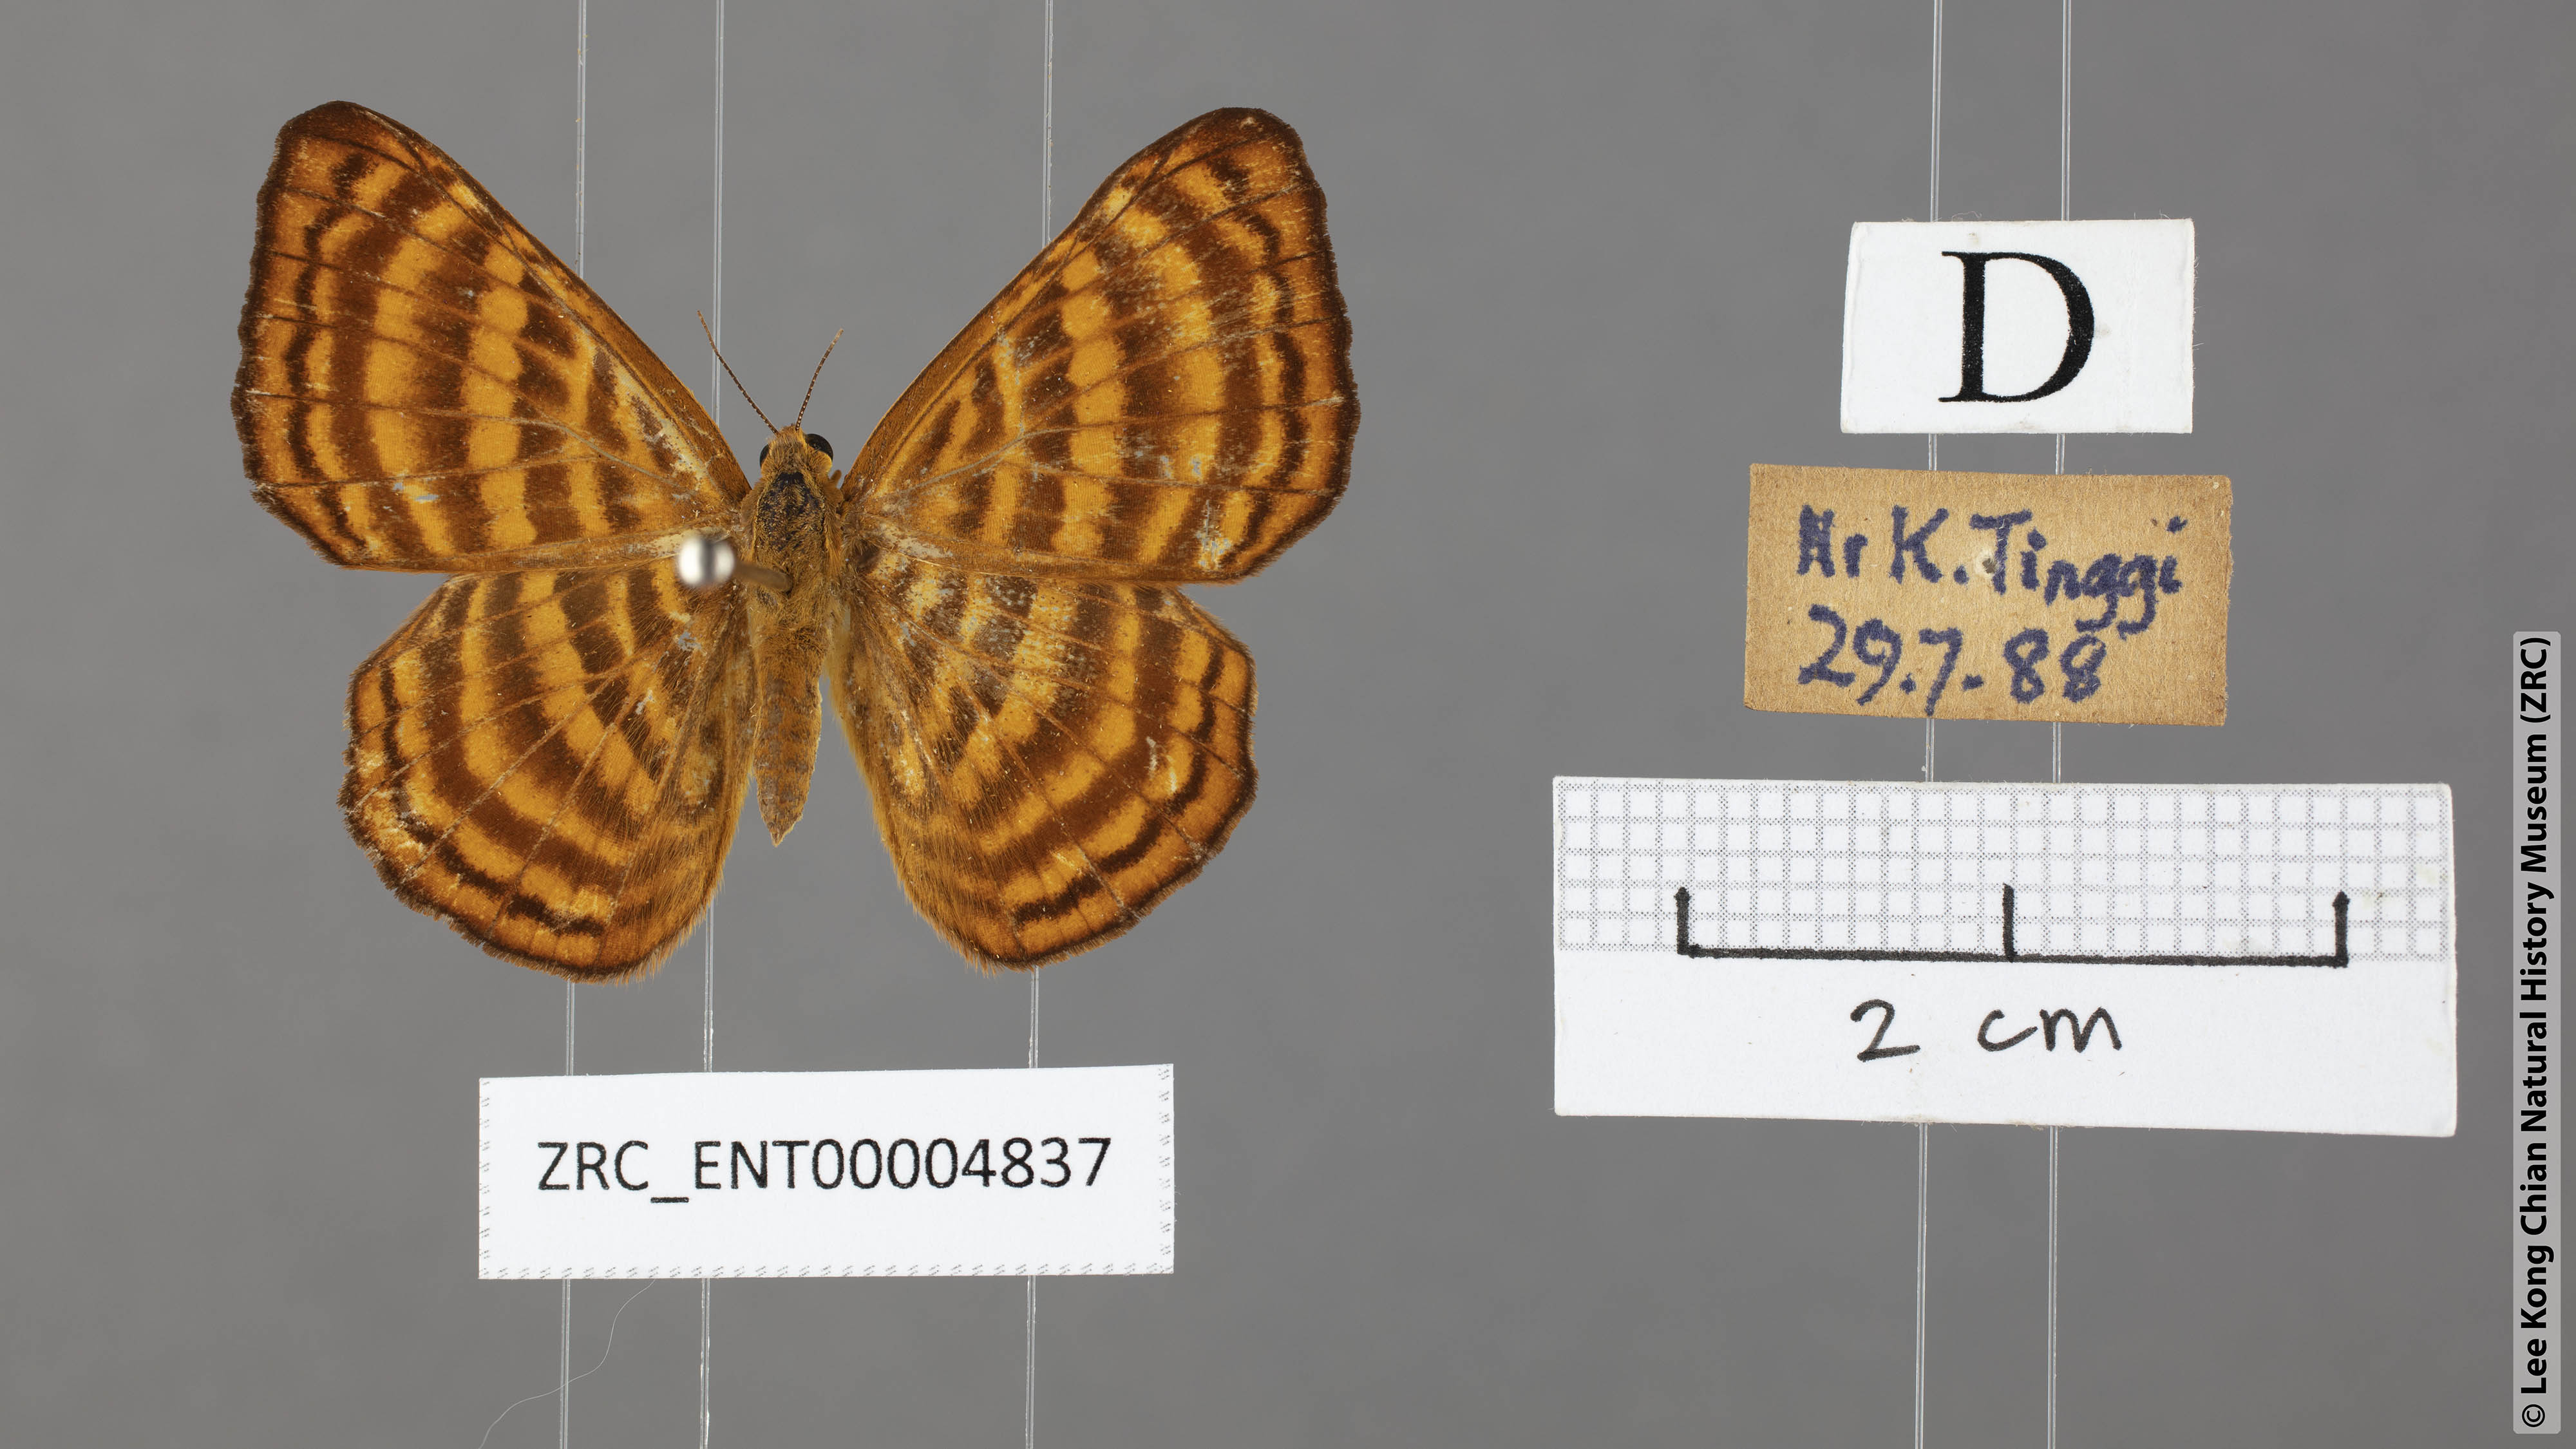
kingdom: Animalia
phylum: Arthropoda
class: Insecta
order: Lepidoptera
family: Riodinidae
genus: Zemeros
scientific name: Zemeros emesoides
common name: Malay punchinello
